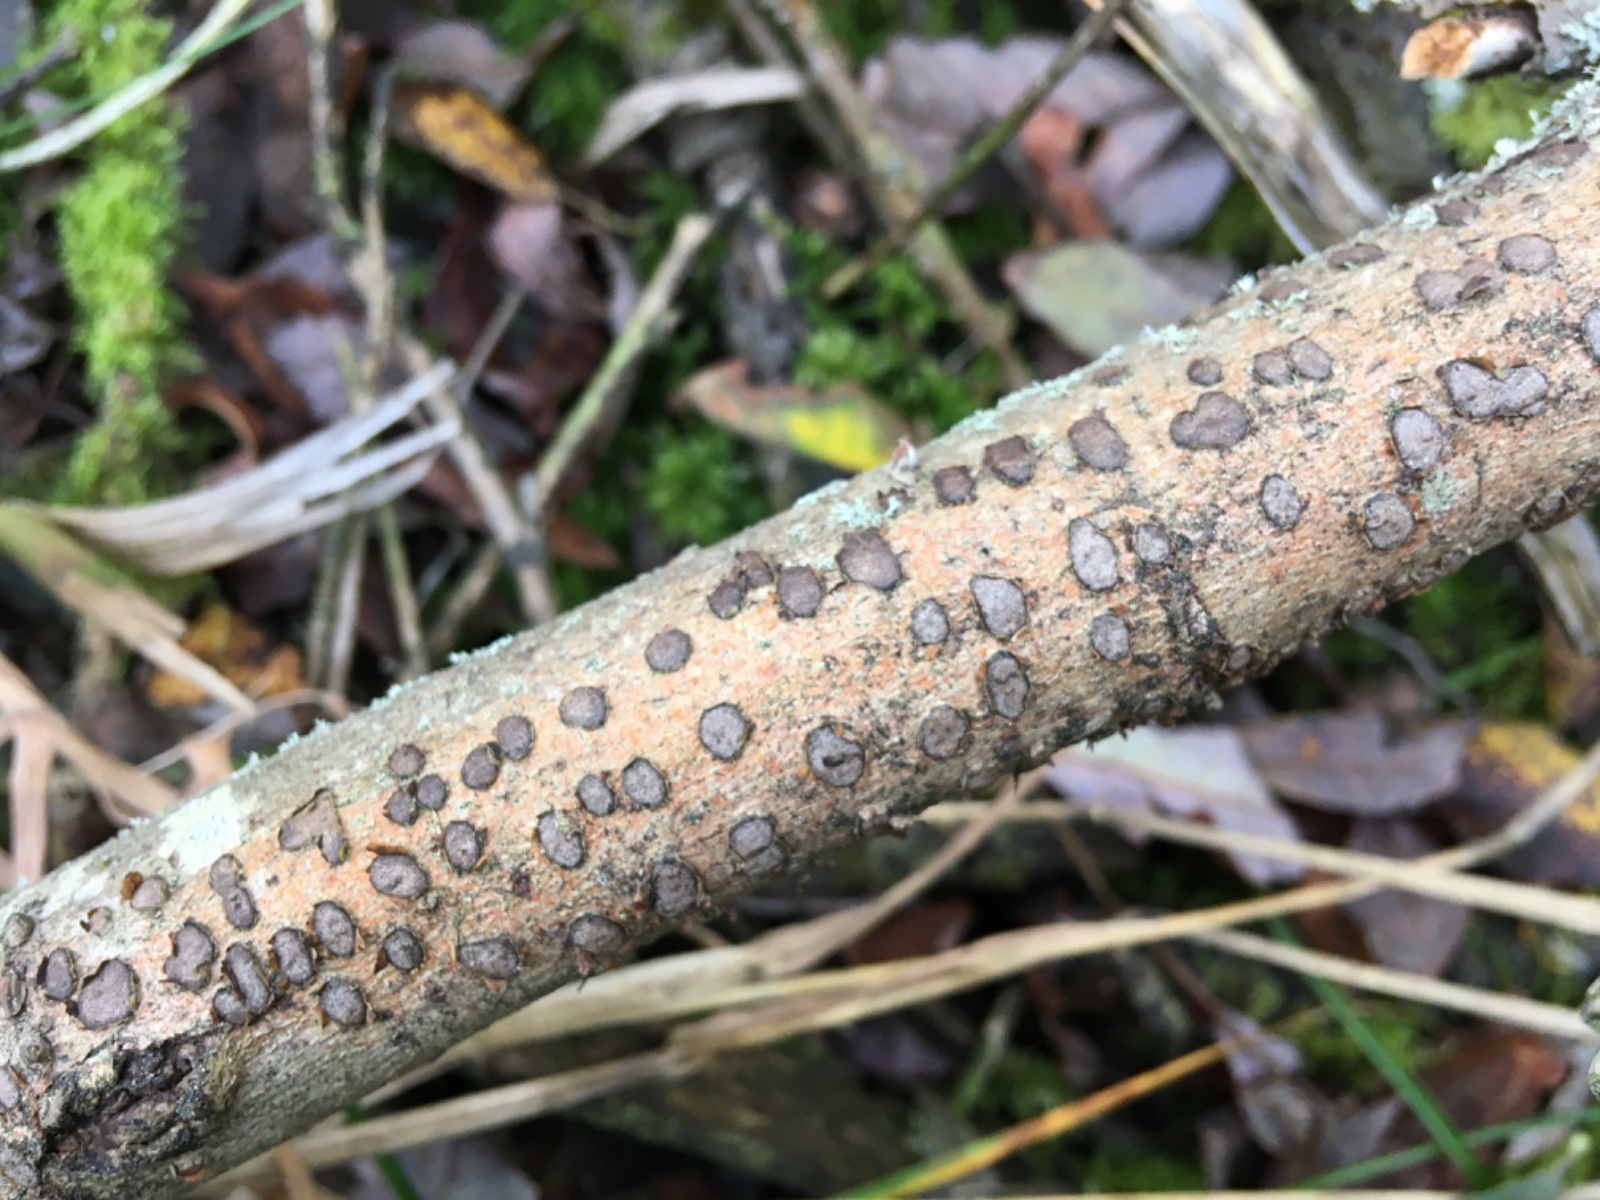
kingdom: Fungi
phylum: Ascomycota
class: Sordariomycetes
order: Xylariales
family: Diatrypaceae
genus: Diatrype
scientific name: Diatrype bullata
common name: pile-kulskorpe
